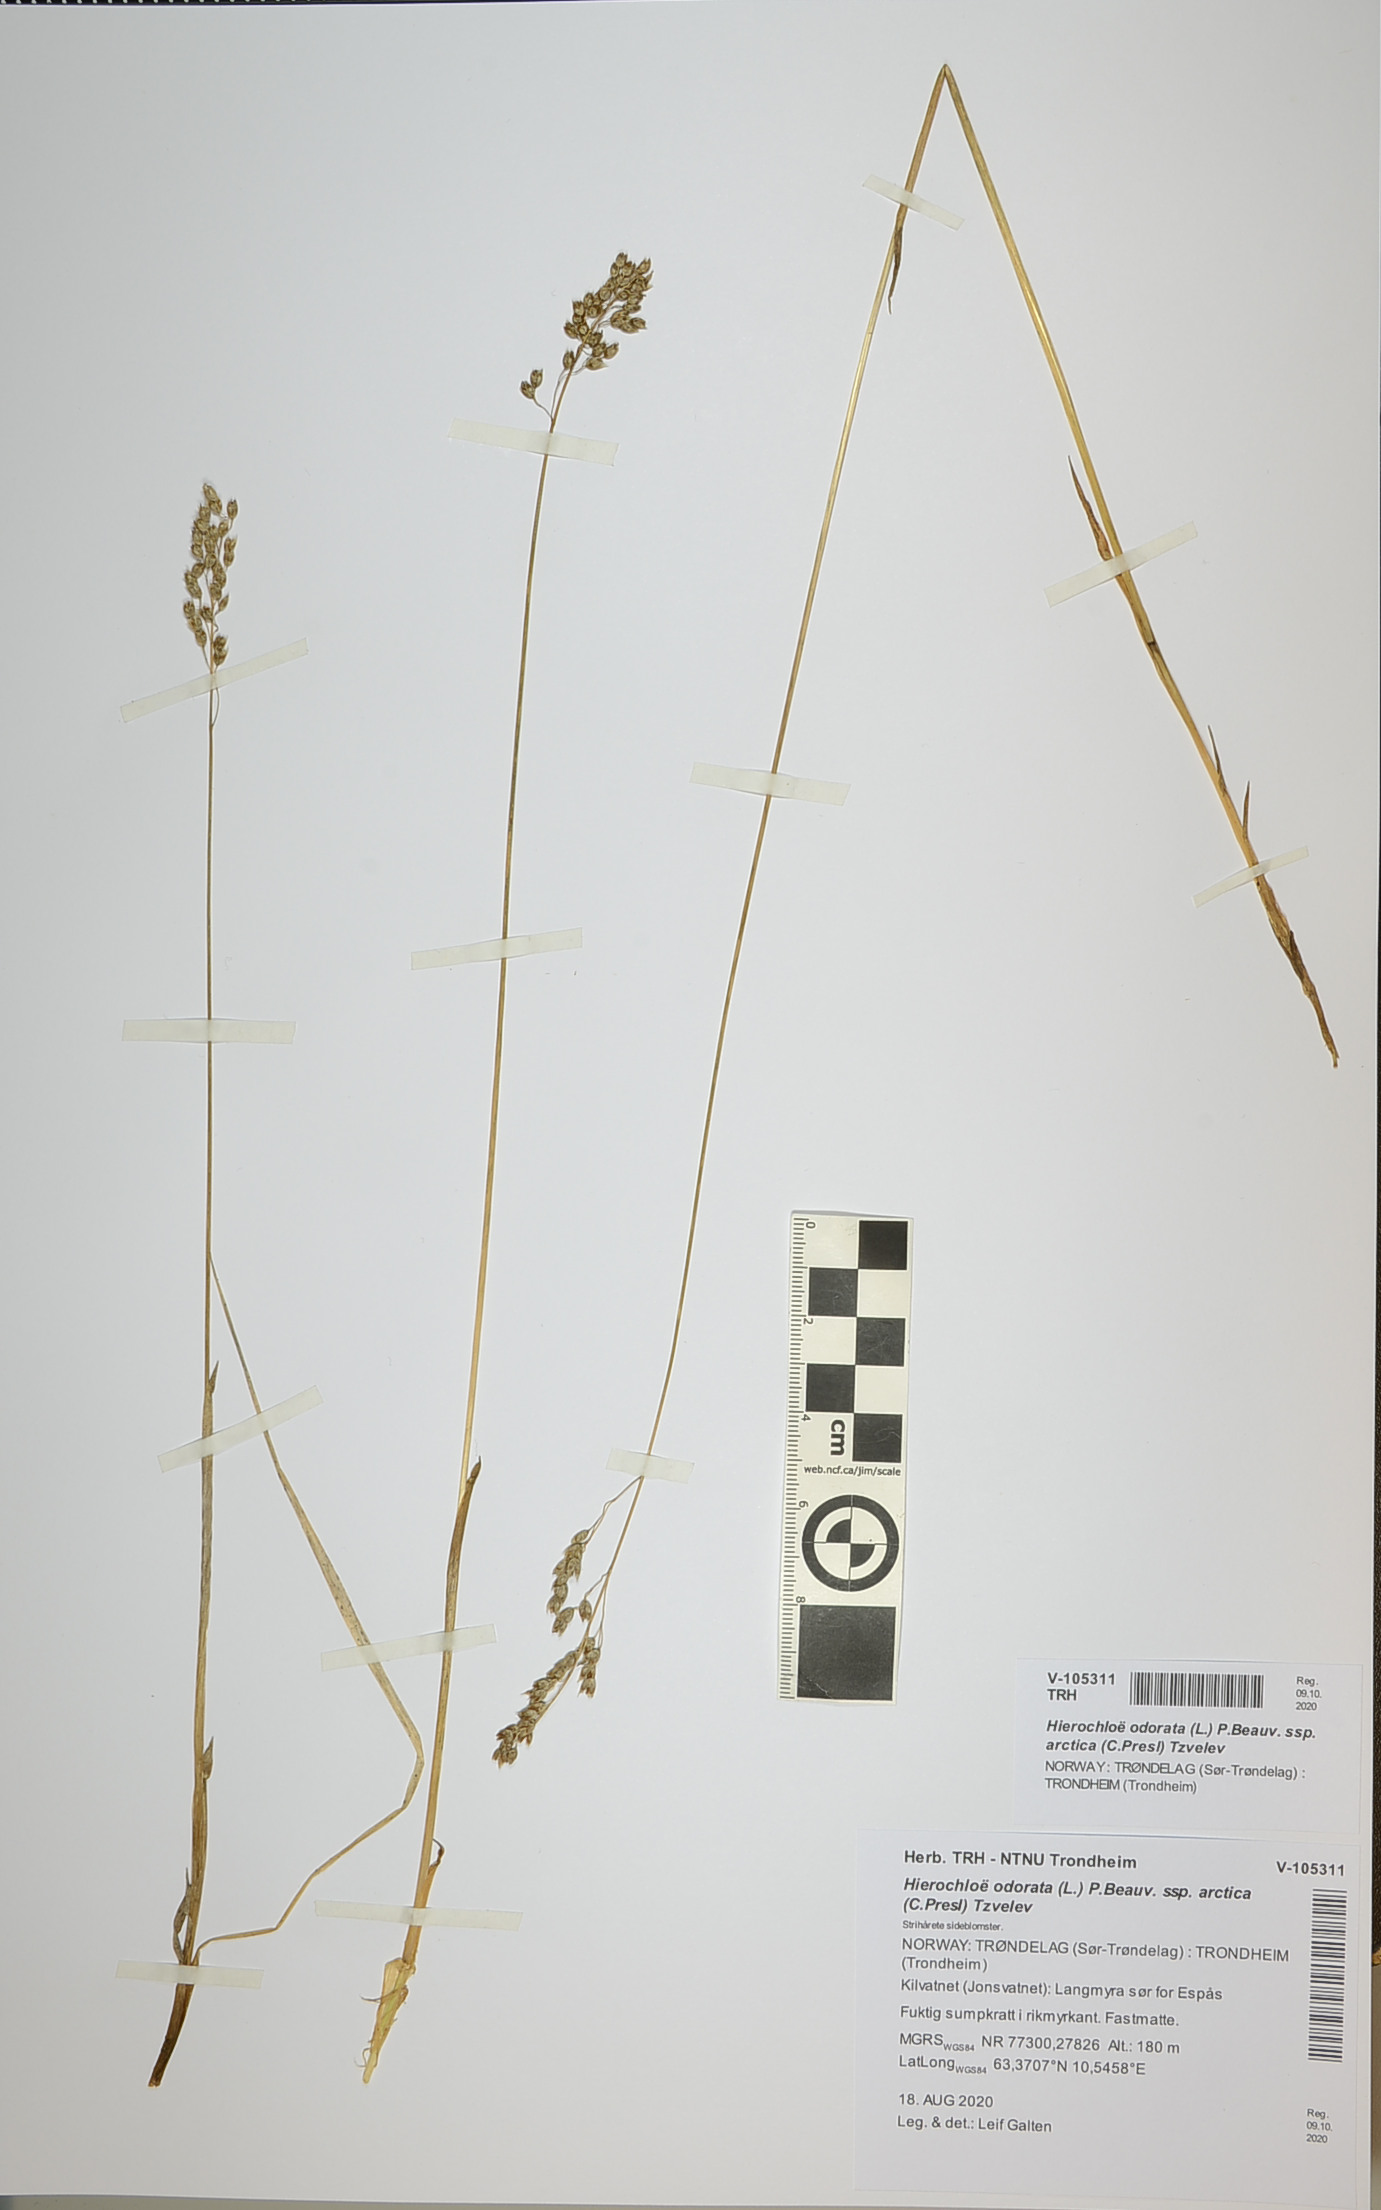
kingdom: Plantae
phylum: Tracheophyta
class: Liliopsida
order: Poales
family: Poaceae
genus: Anthoxanthum
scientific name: Anthoxanthum nitens
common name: Holy grass
